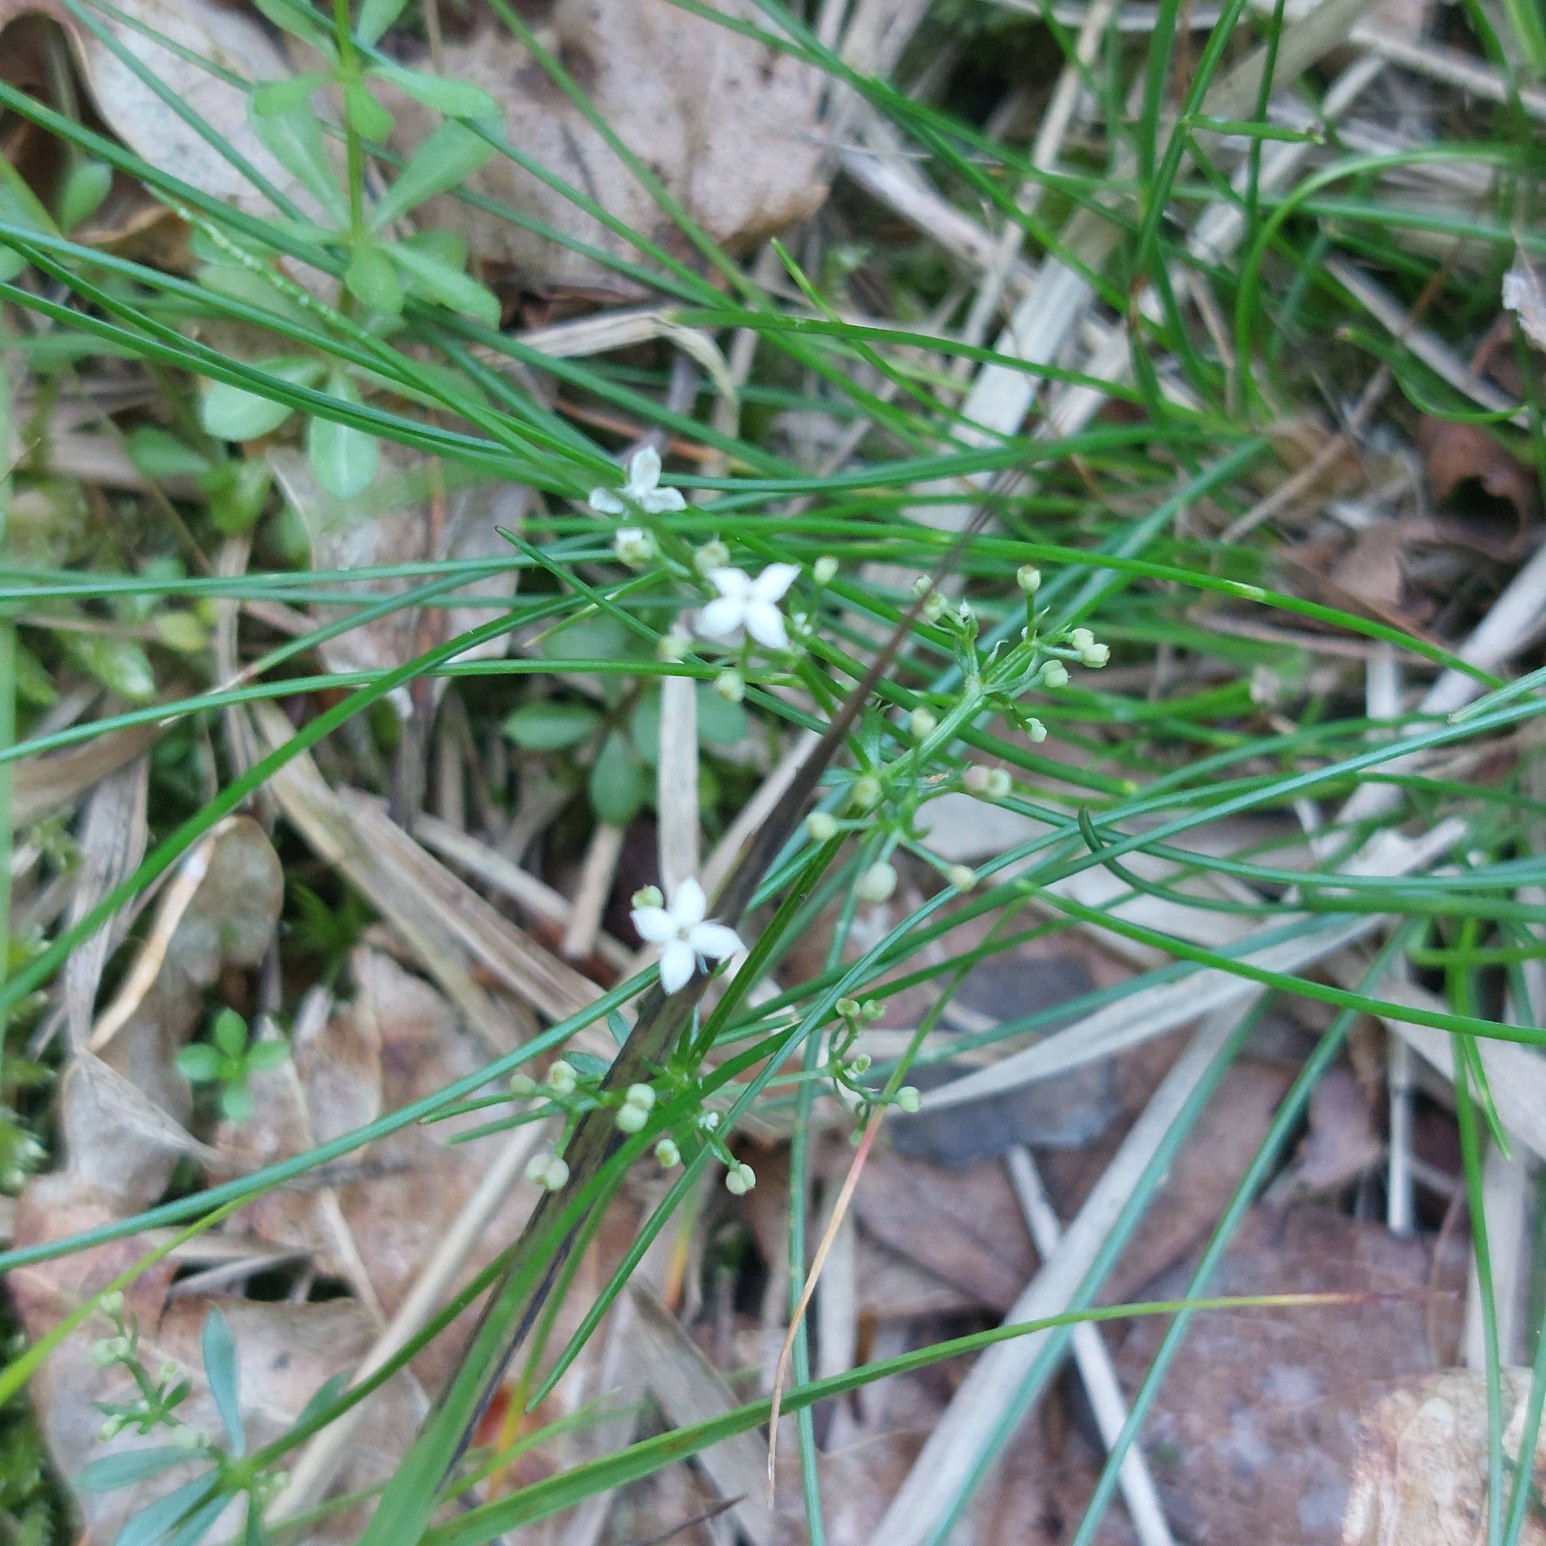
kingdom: Plantae
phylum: Tracheophyta
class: Magnoliopsida
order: Gentianales
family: Rubiaceae
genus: Galium
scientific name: Galium saxatile
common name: Lyng-snerre
